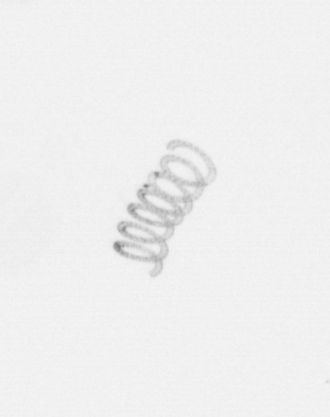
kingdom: Chromista
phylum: Ochrophyta
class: Bacillariophyceae
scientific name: Bacillariophyceae
